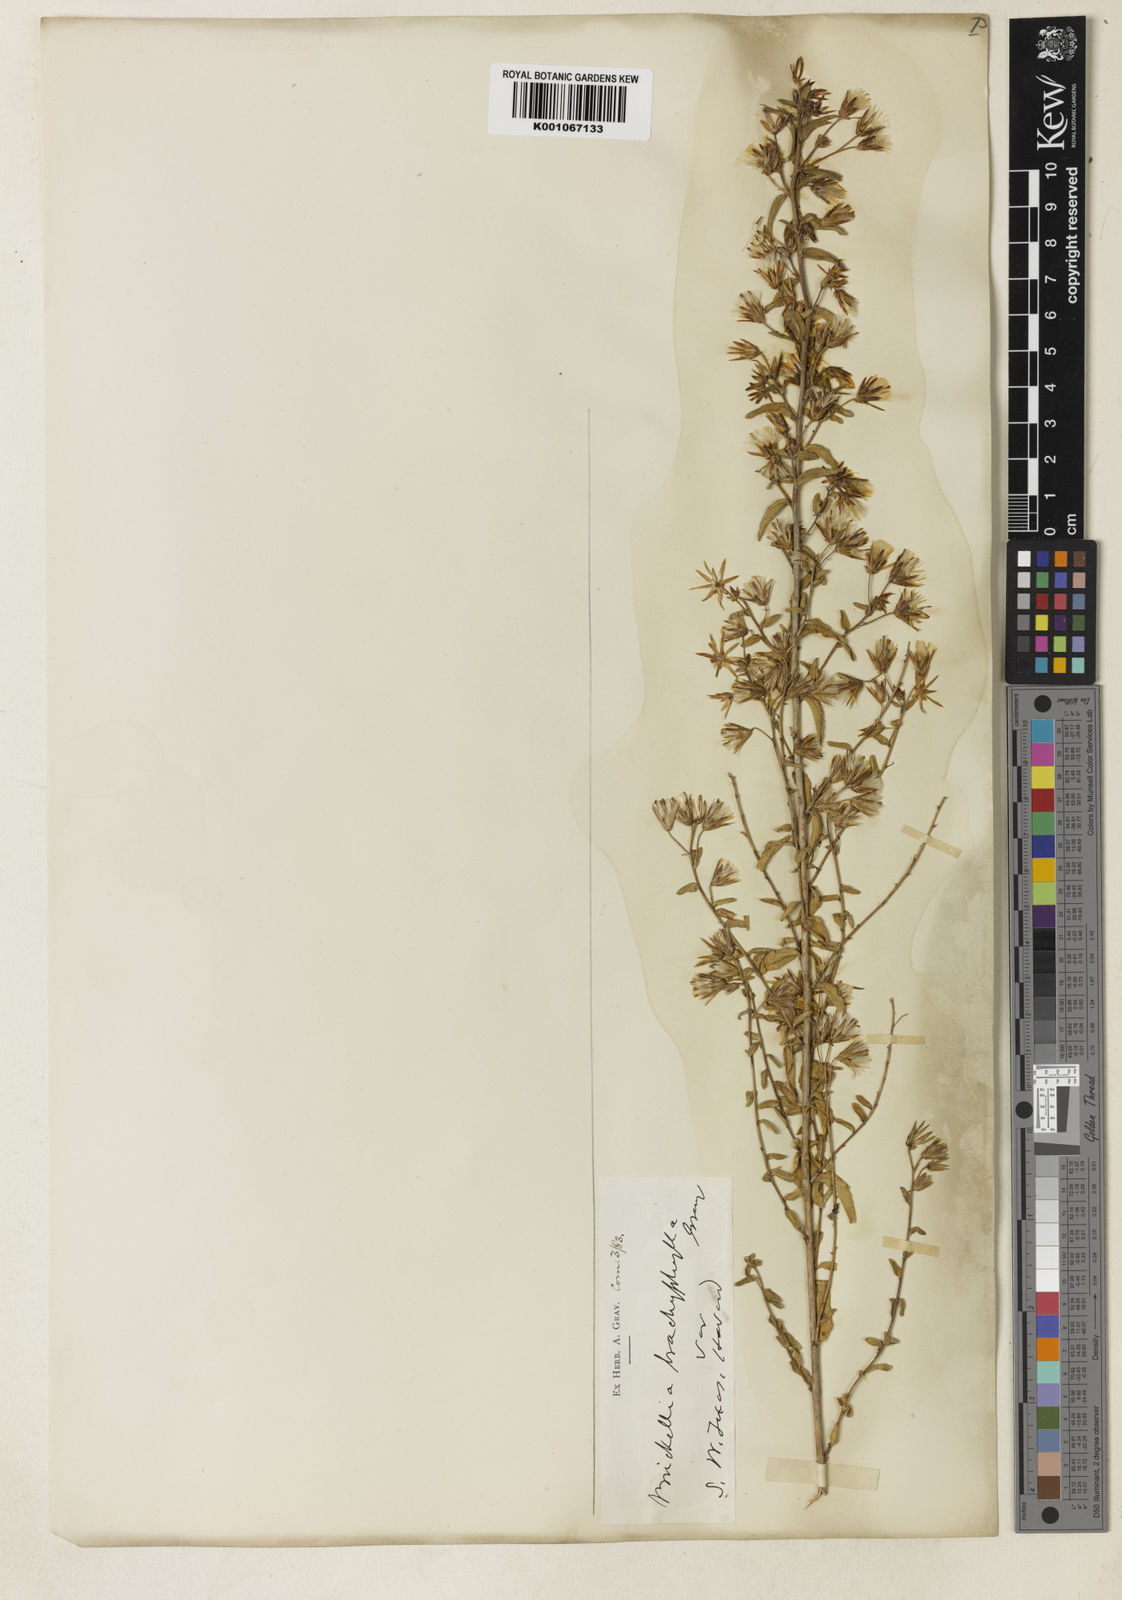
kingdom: Plantae
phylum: Tracheophyta
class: Magnoliopsida
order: Asterales
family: Asteraceae
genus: Brickellia
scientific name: Brickellia brachyphylla
